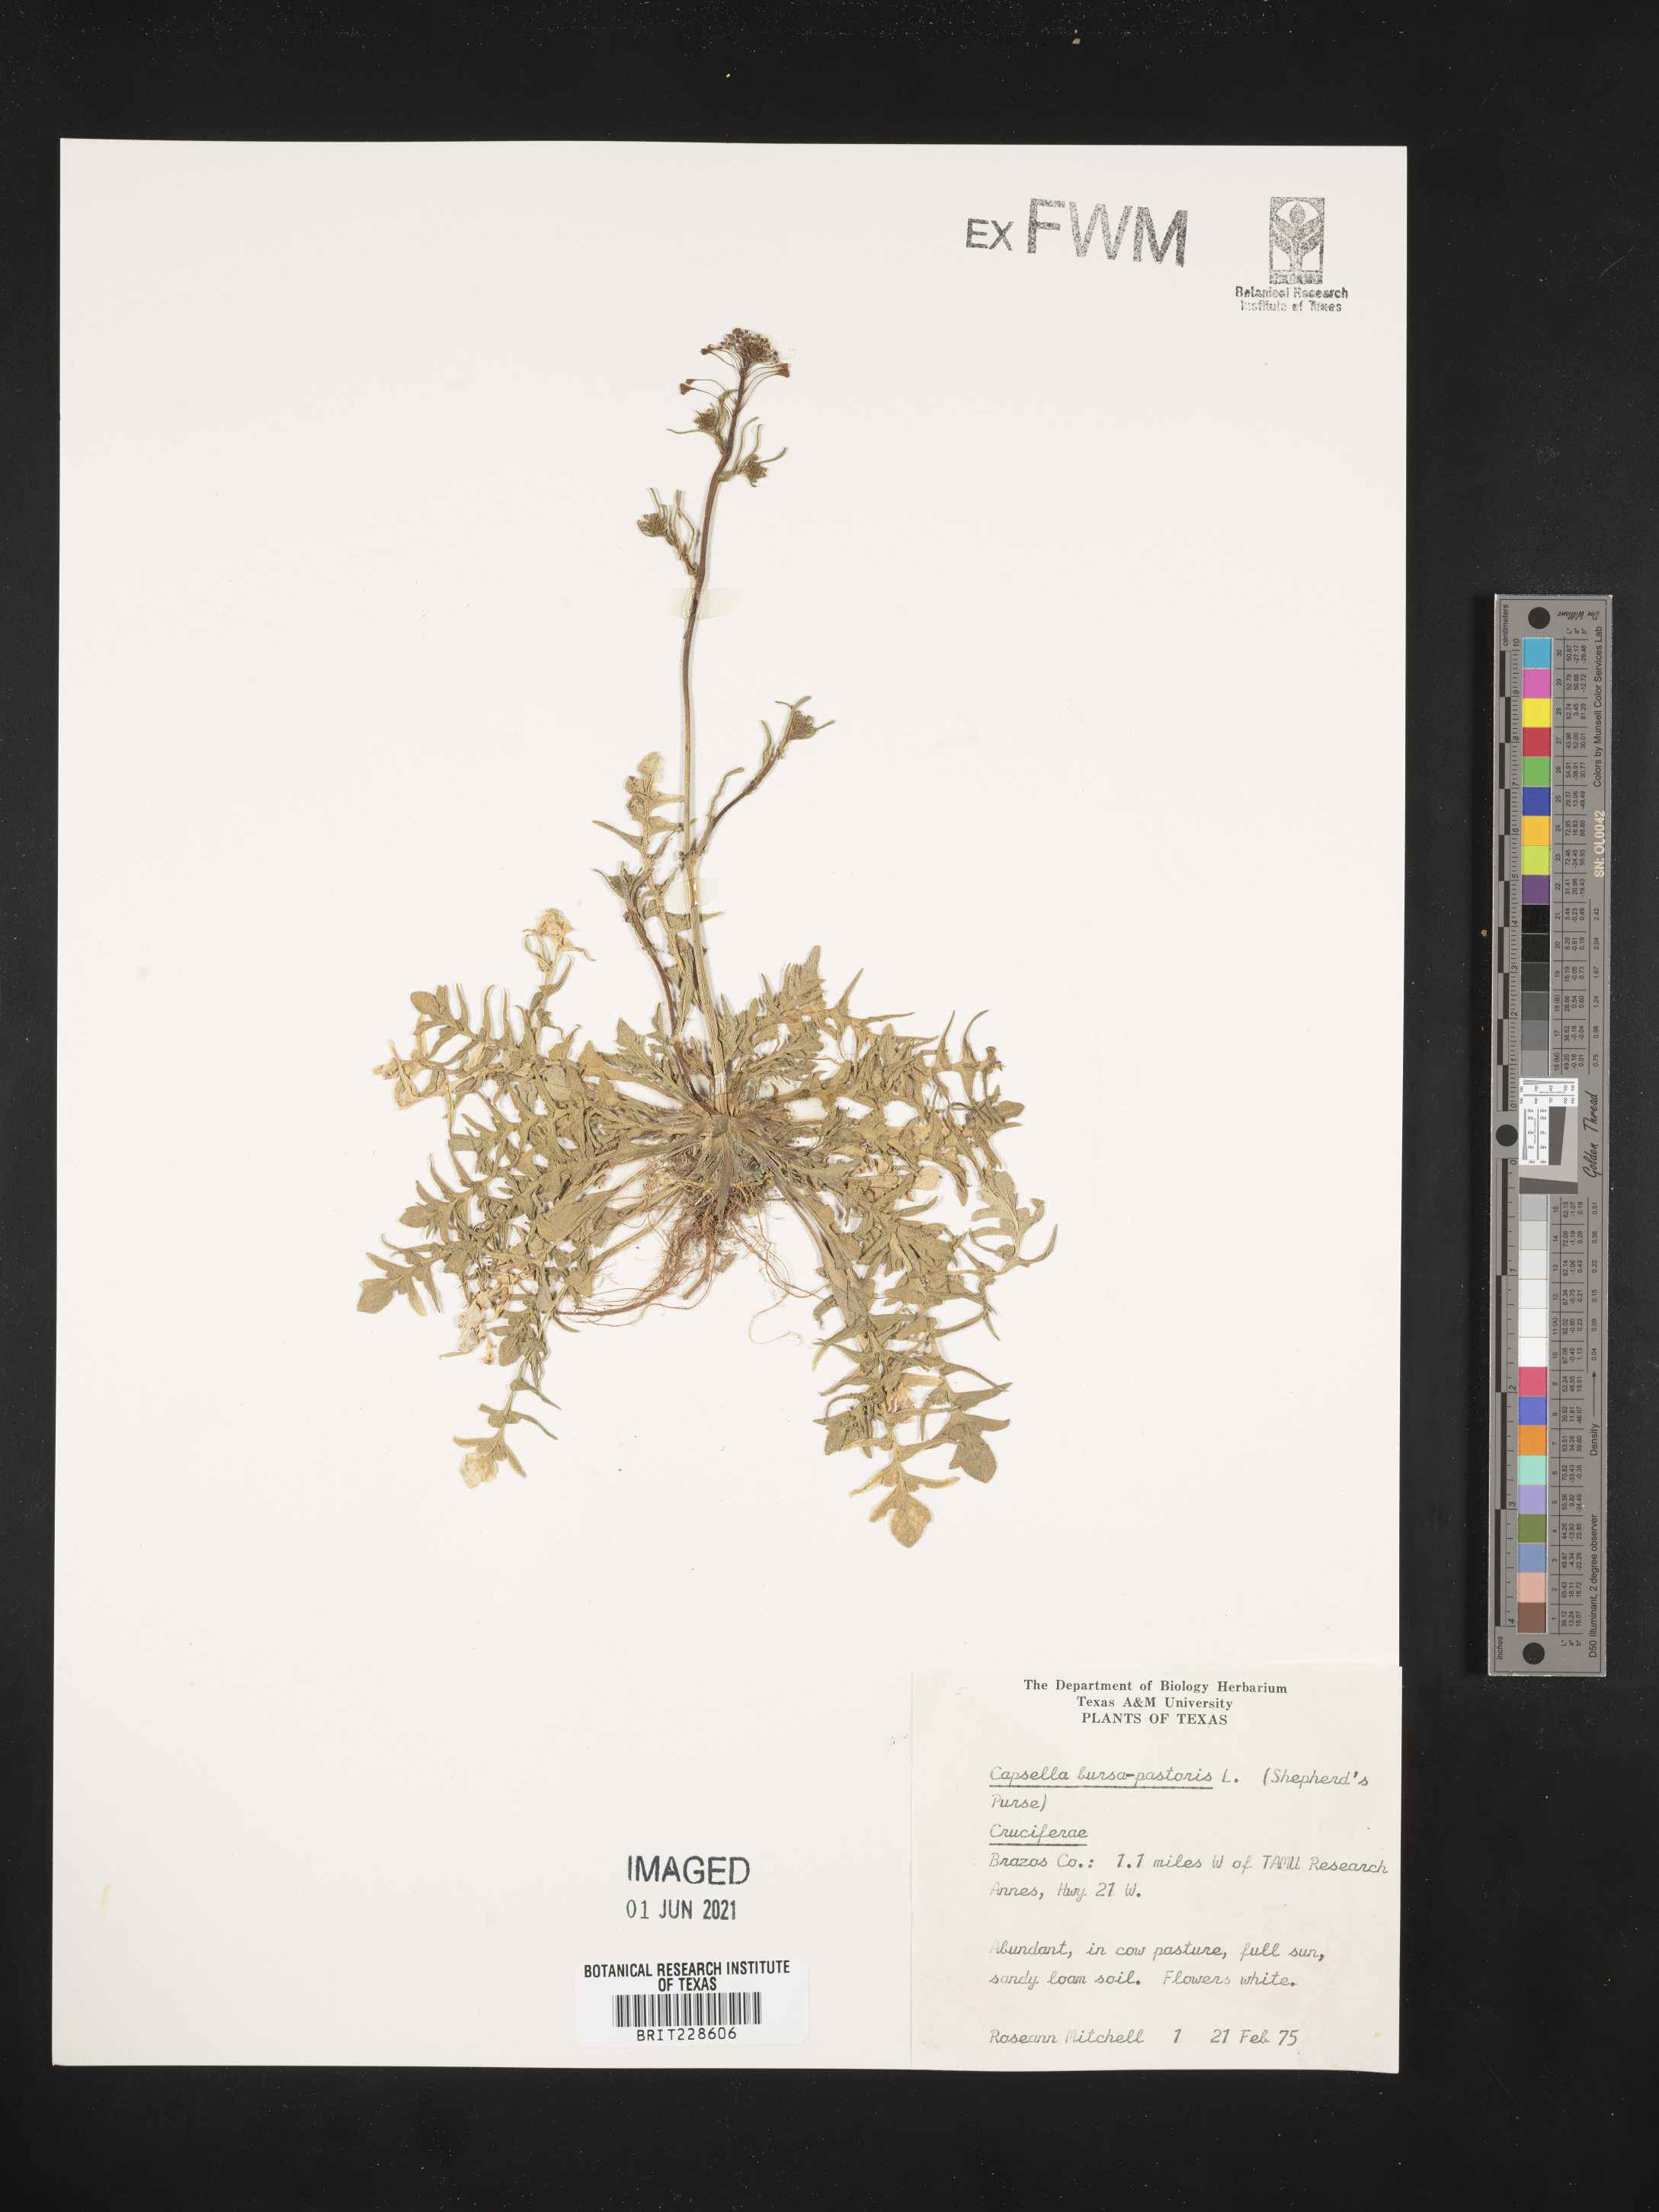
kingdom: Plantae
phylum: Tracheophyta
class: Magnoliopsida
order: Brassicales
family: Brassicaceae
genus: Capsella
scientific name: Capsella bursa-pastoris
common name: Shepherd's purse
